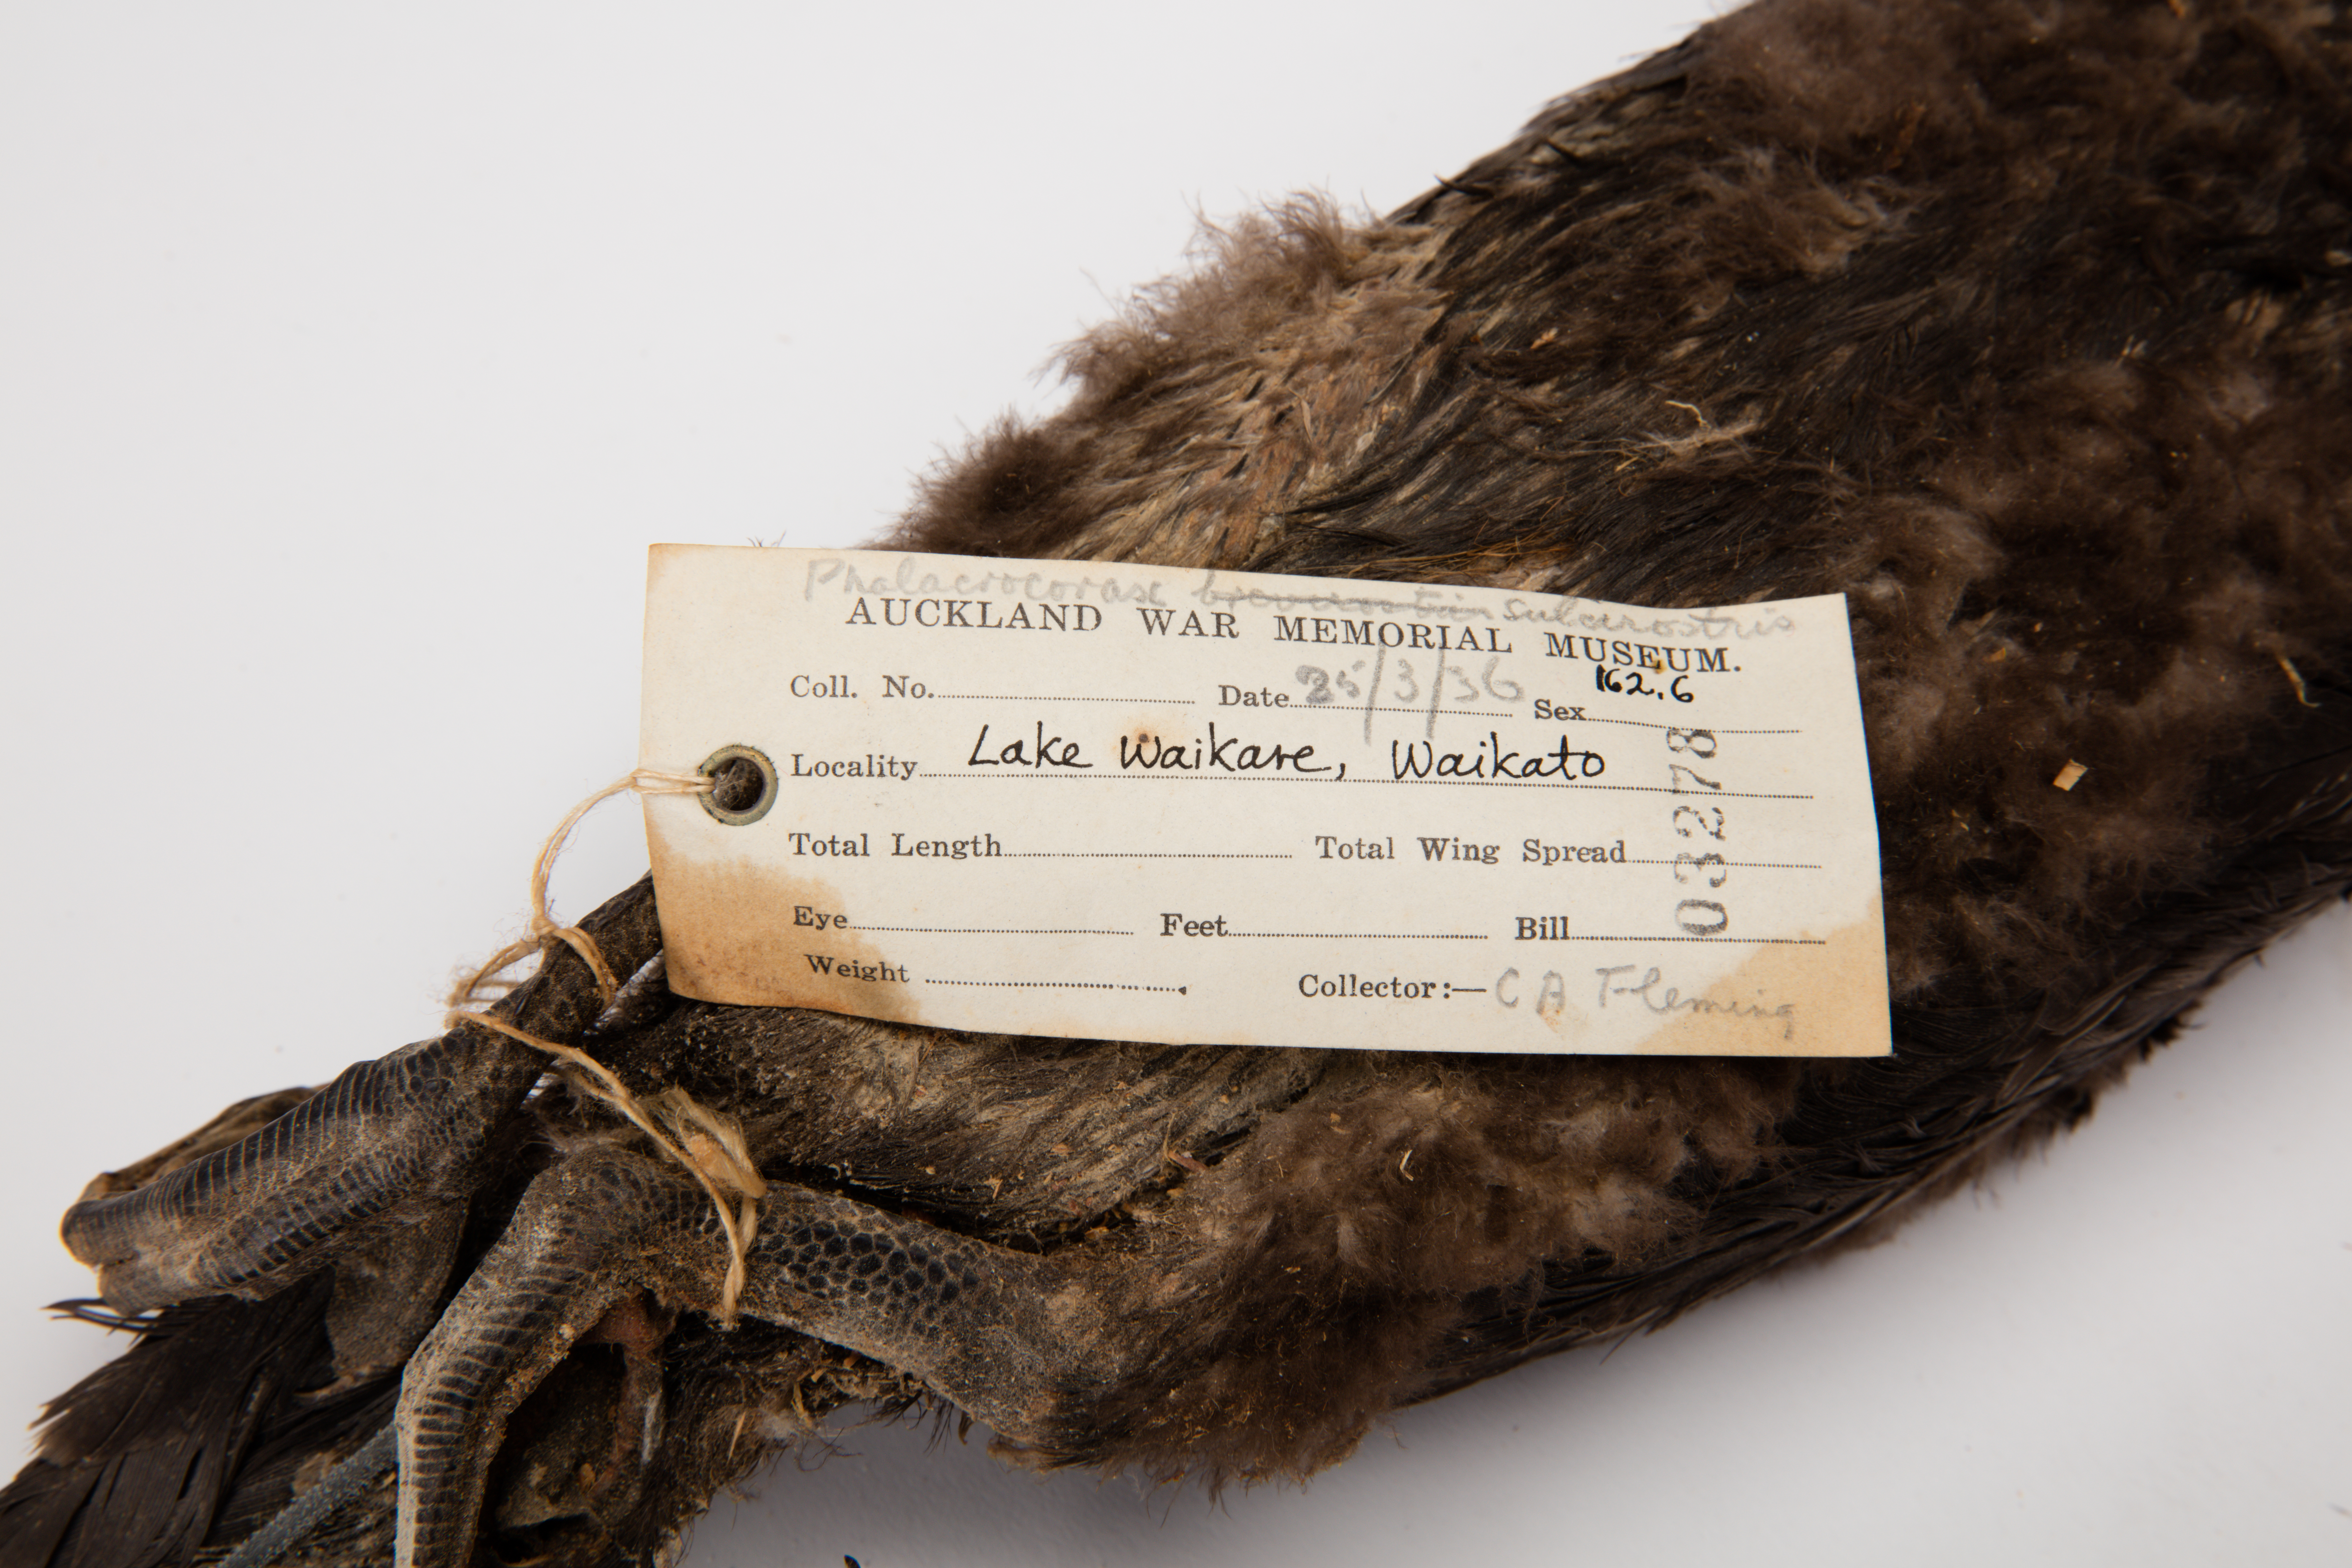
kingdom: Animalia
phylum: Chordata
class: Aves
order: Suliformes
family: Phalacrocoracidae
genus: Phalacrocorax
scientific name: Phalacrocorax sulcirostris
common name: Little black cormorant
